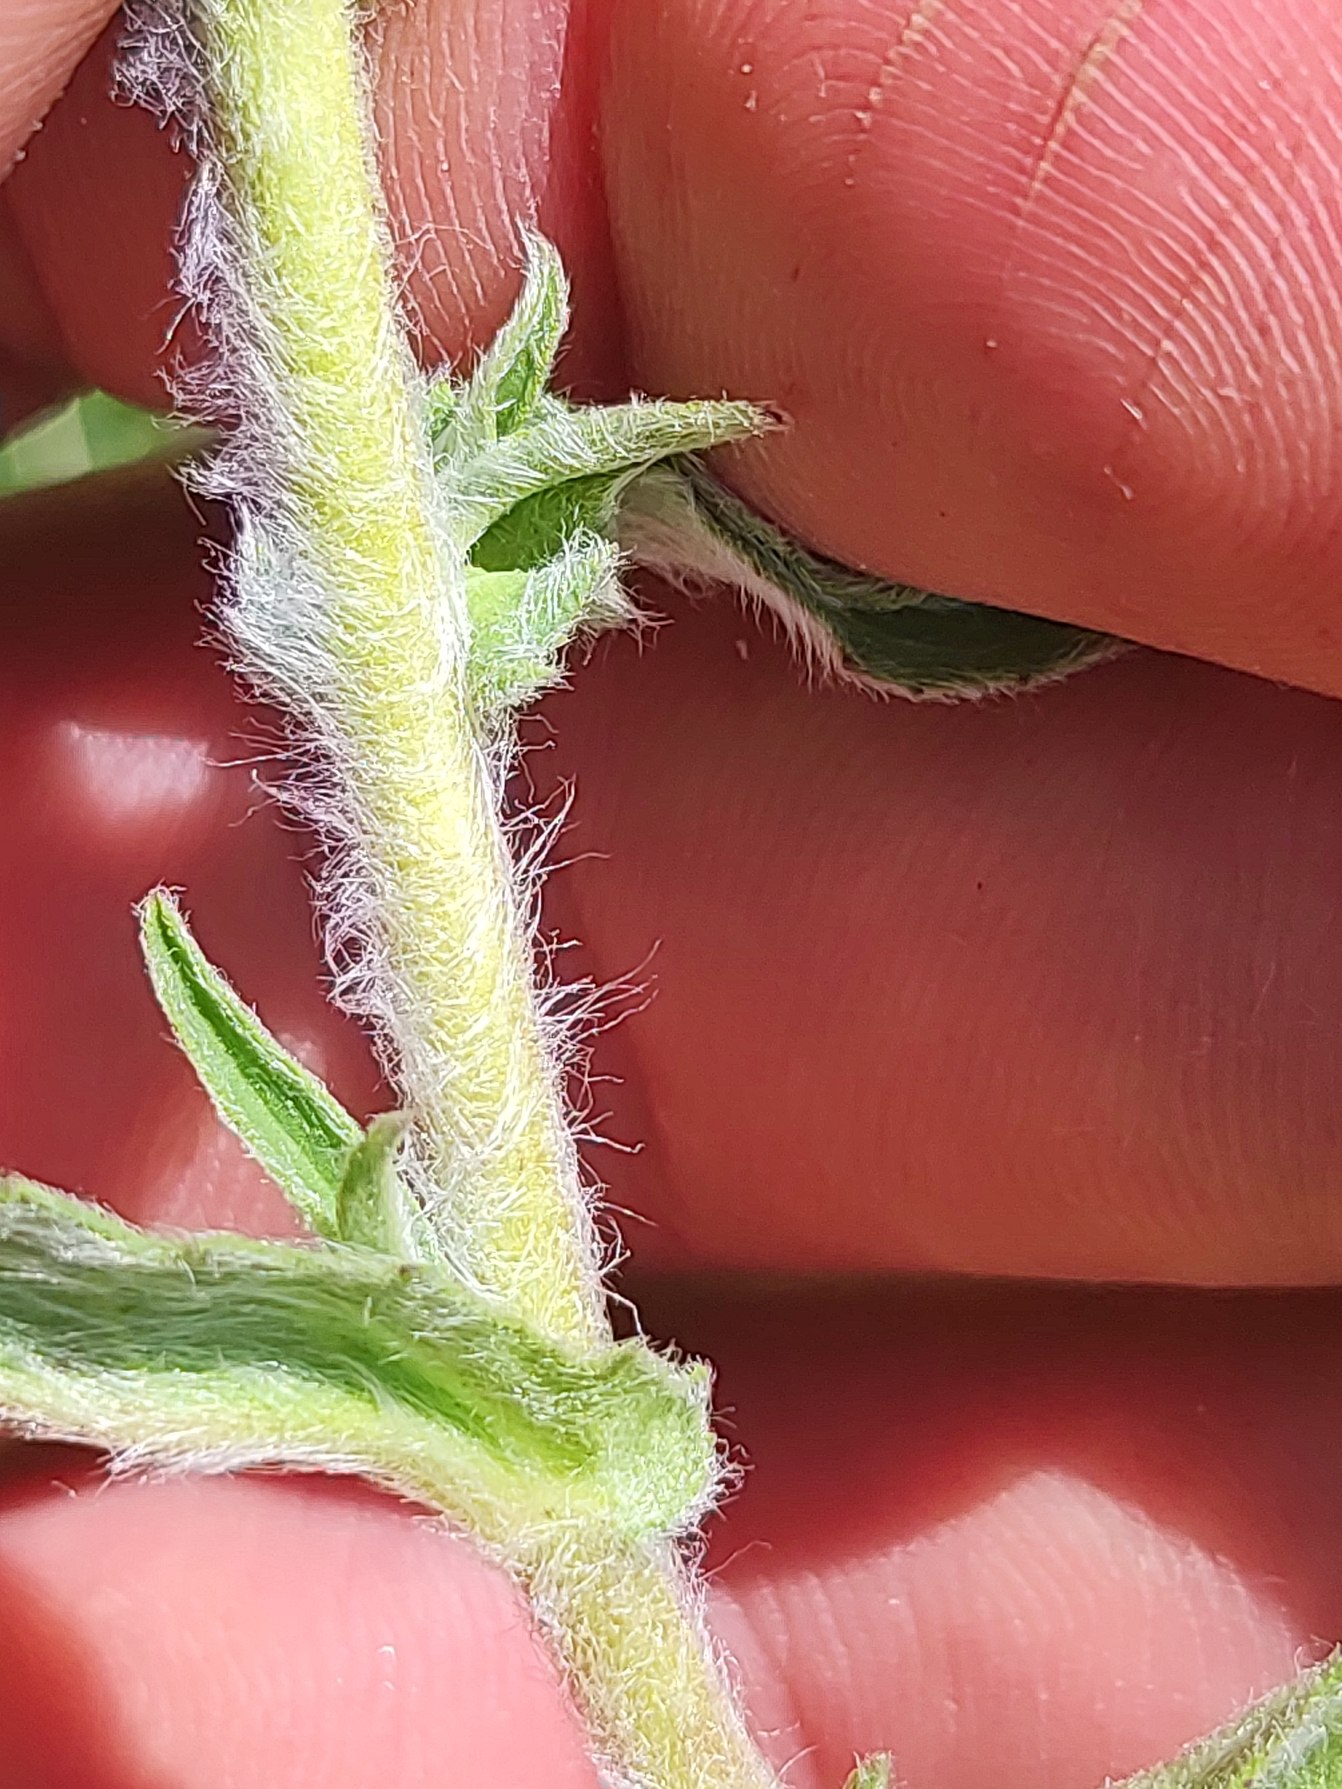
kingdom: Plantae
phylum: Tracheophyta
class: Magnoliopsida
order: Asterales
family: Asteraceae
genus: Pentanema
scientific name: Pentanema britannicum
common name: Soløje-alant
